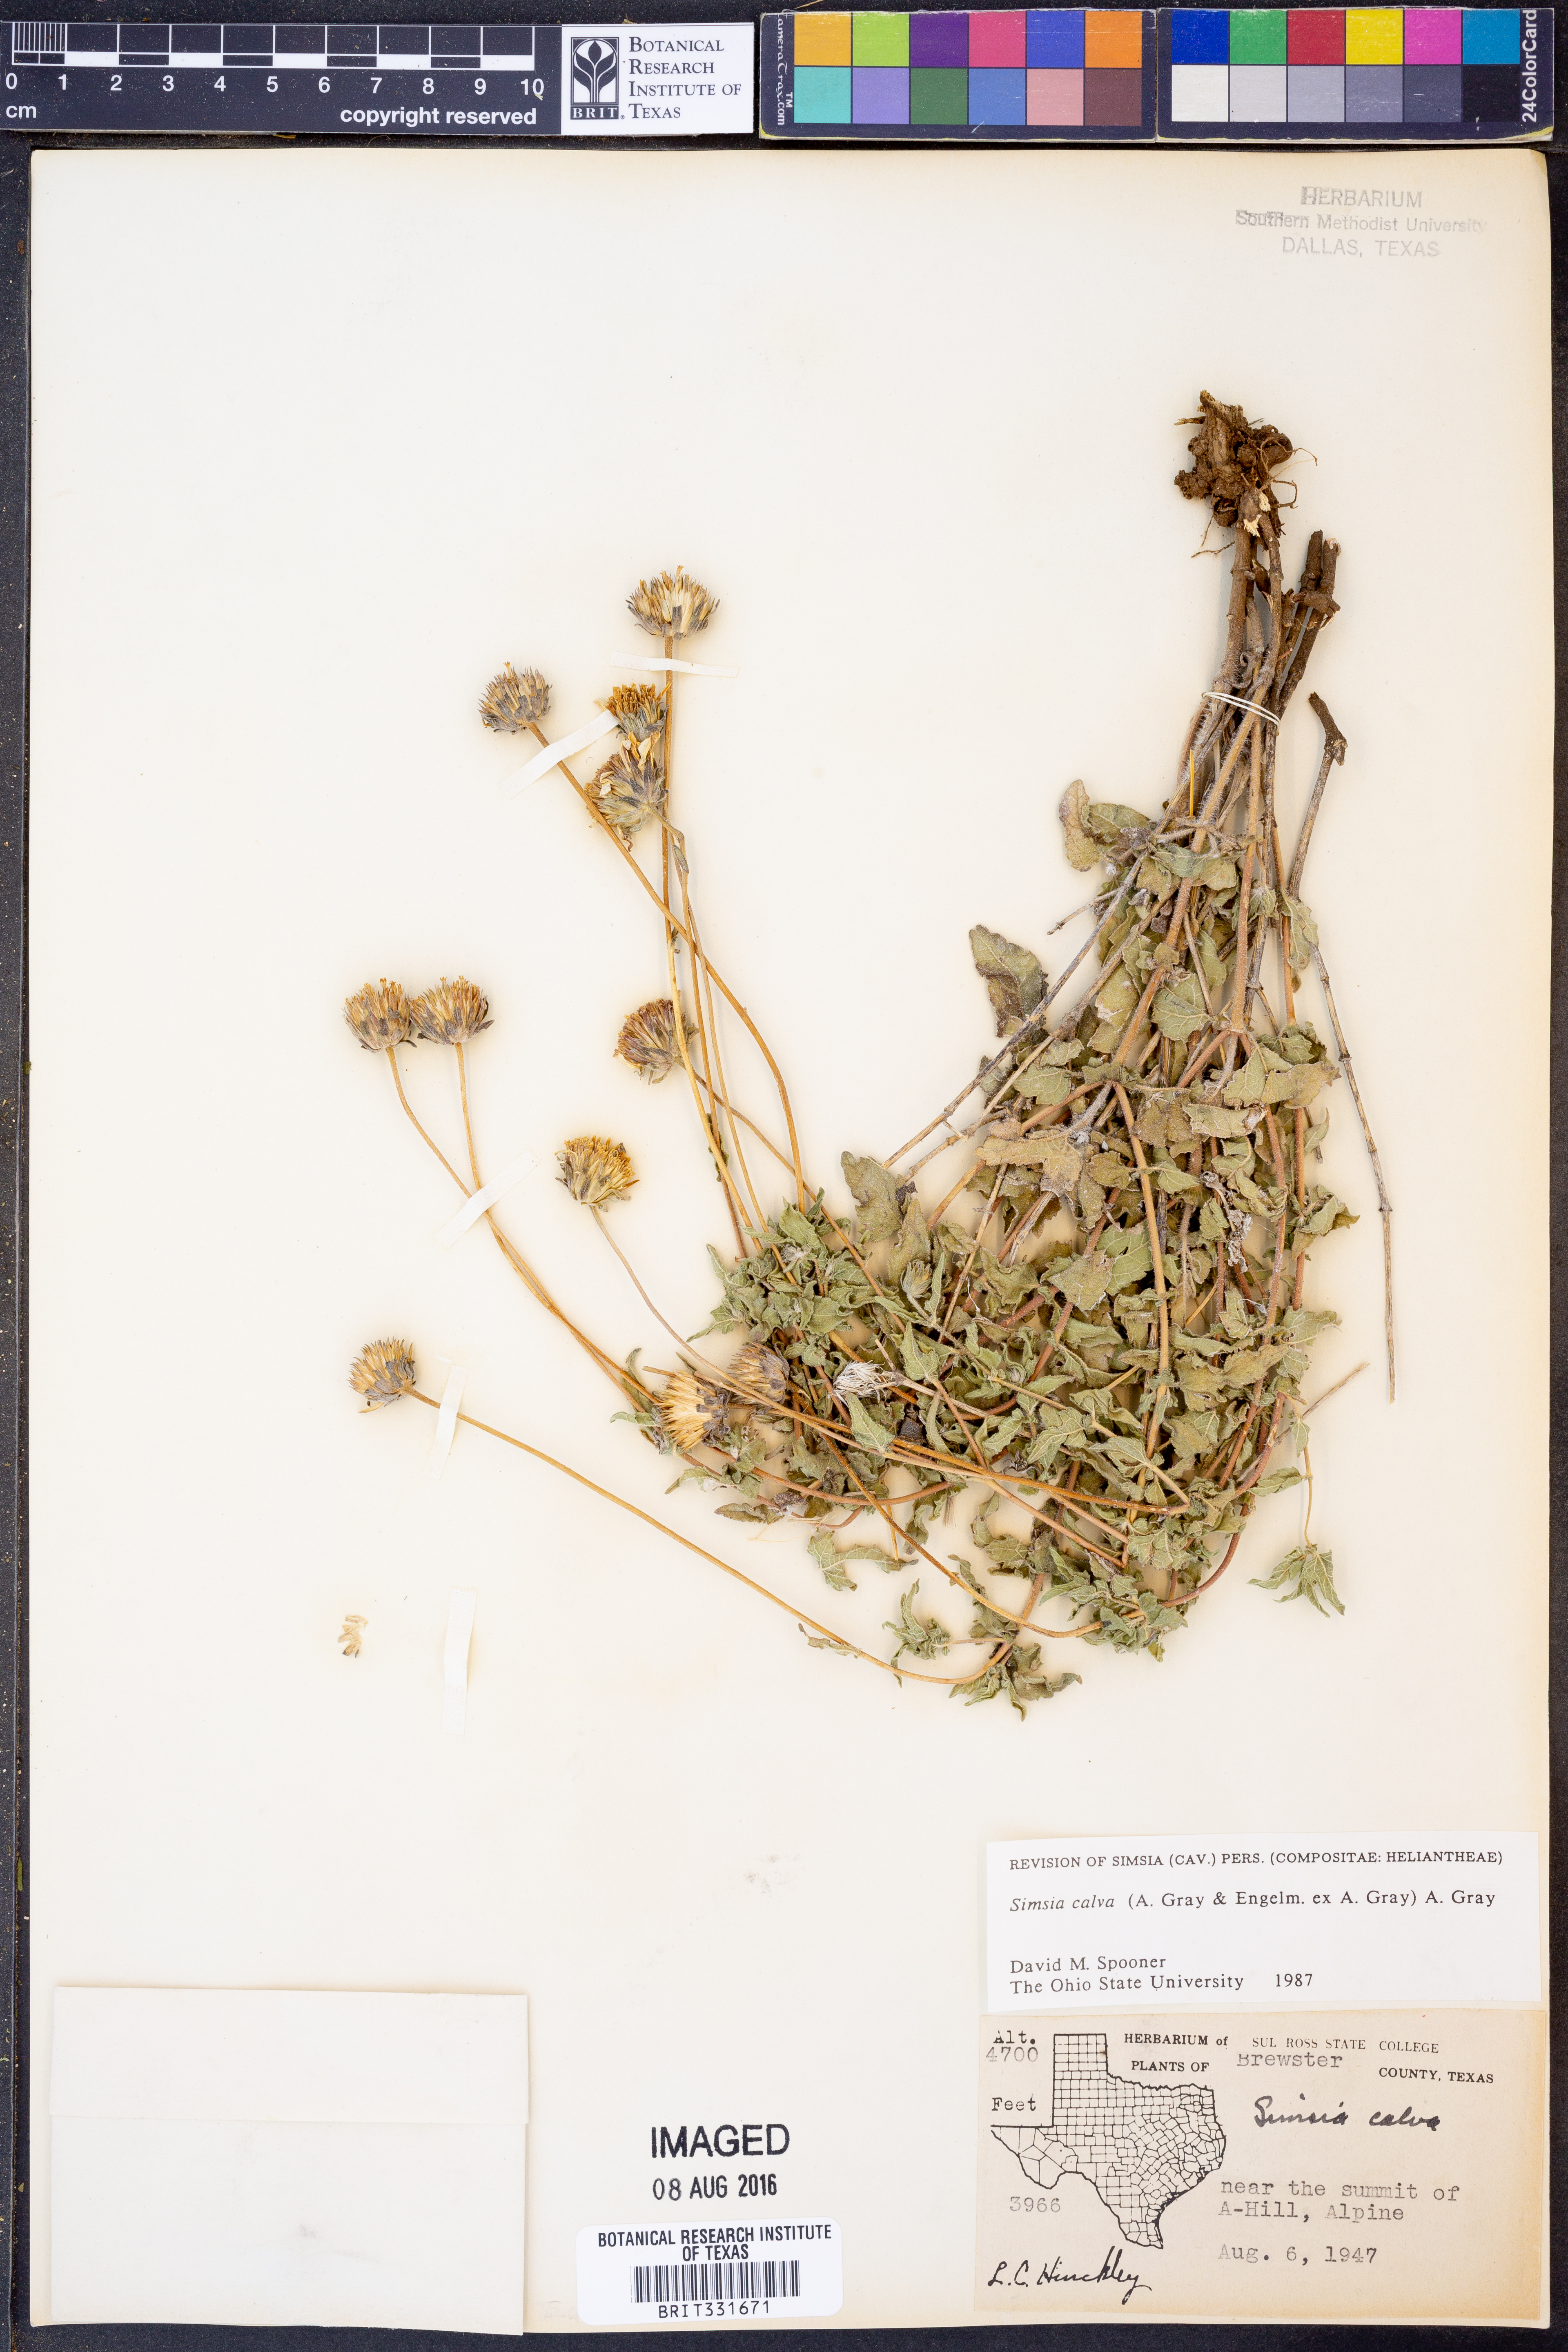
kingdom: Plantae
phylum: Tracheophyta
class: Magnoliopsida
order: Asterales
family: Asteraceae
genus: Simsia
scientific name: Simsia calva
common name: Awnless bush-sunflower
